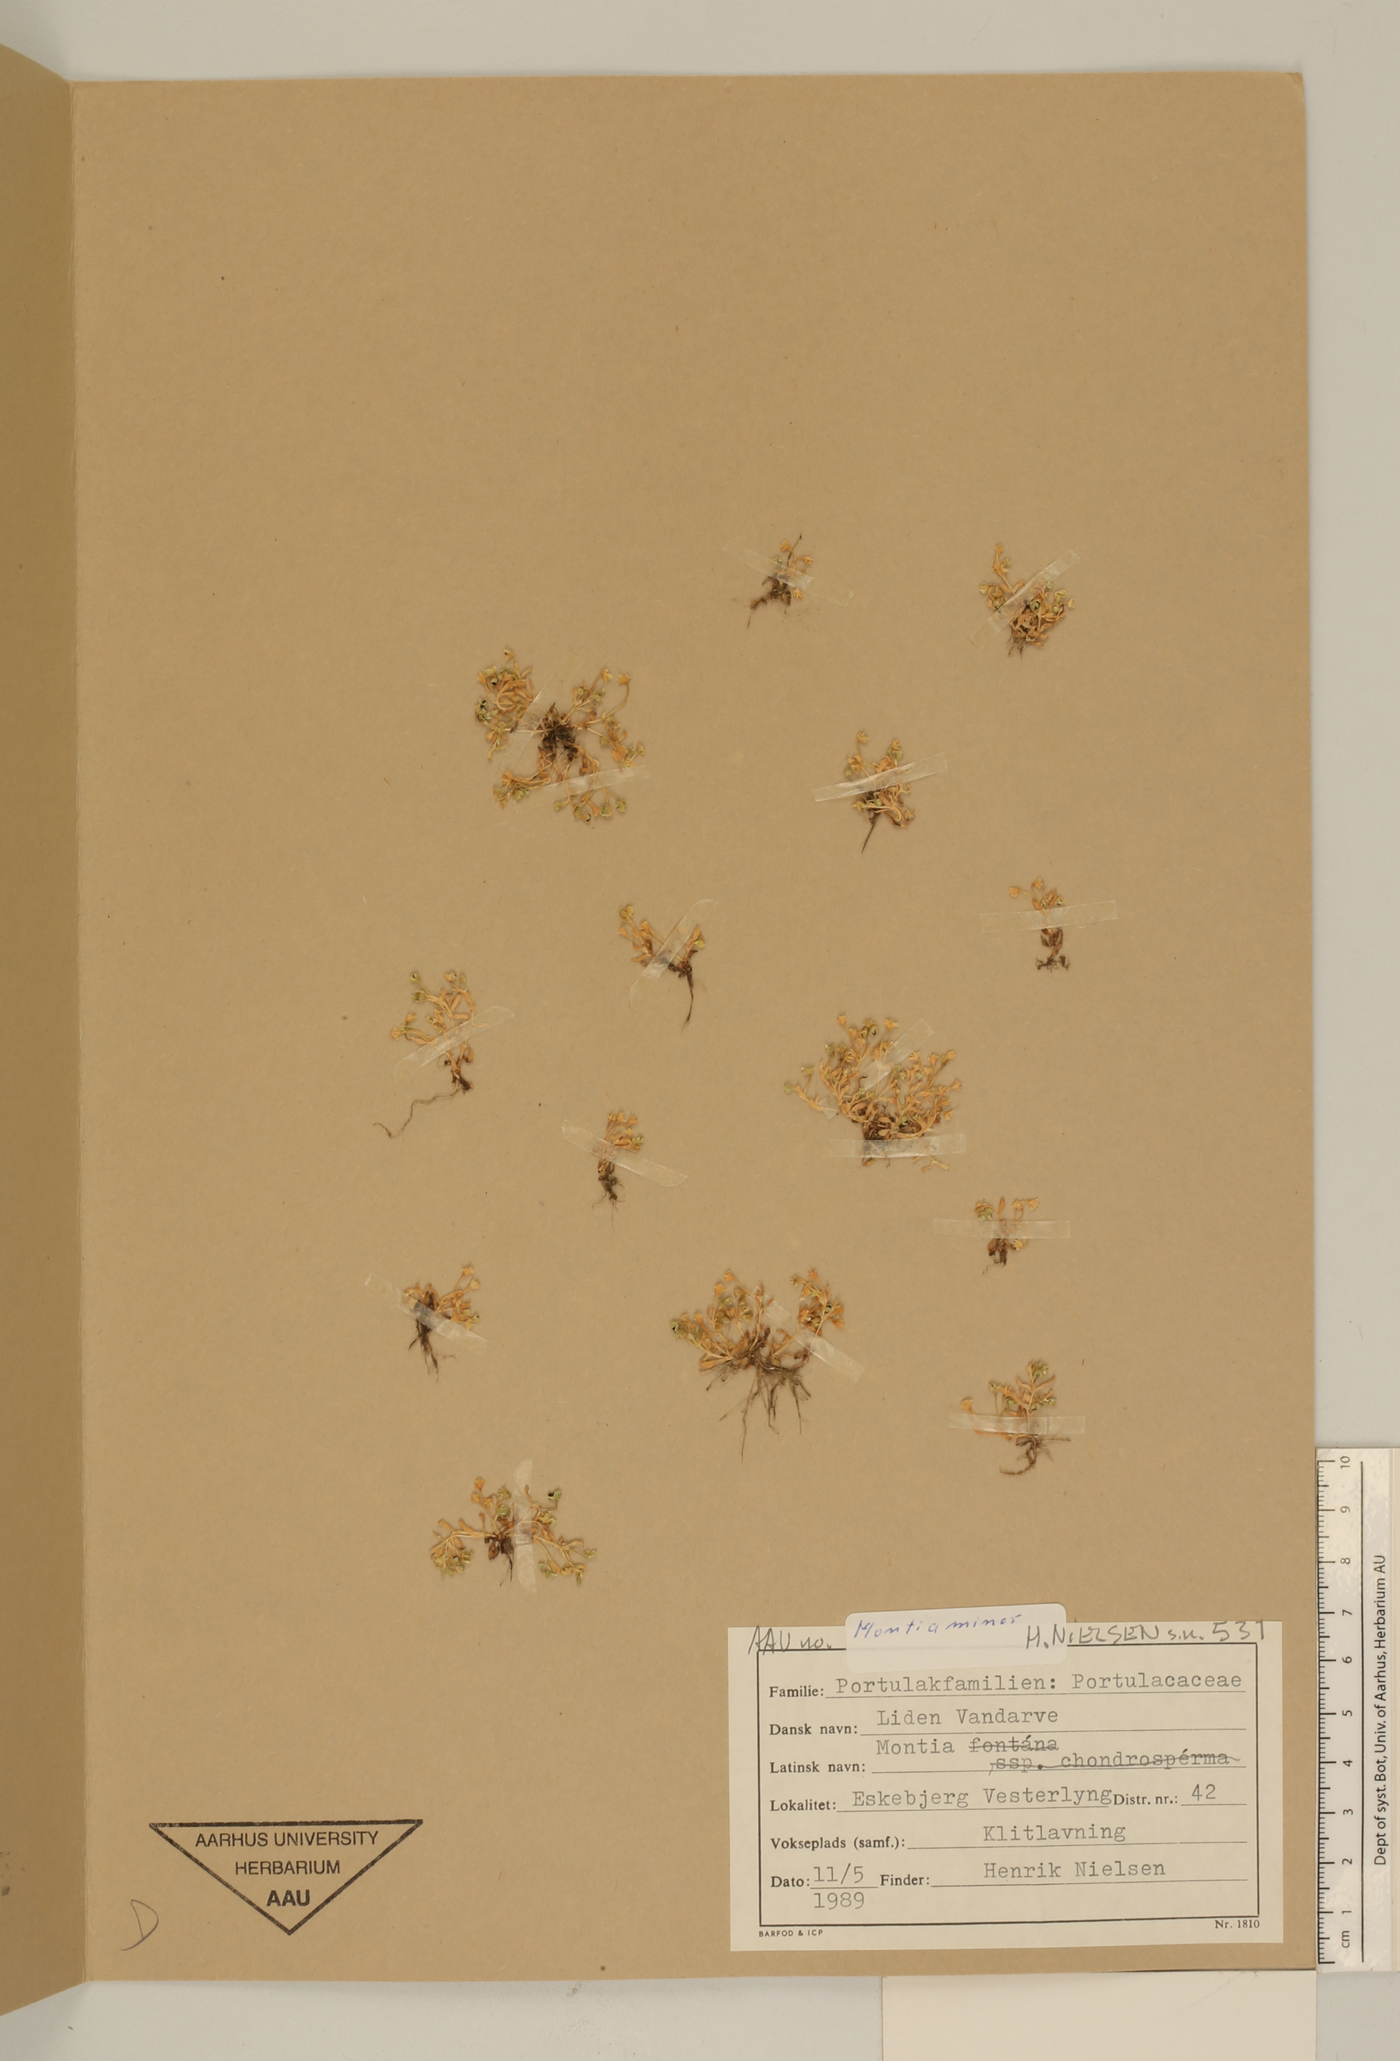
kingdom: Plantae
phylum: Tracheophyta
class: Magnoliopsida
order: Caryophyllales
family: Montiaceae
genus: Montia
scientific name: Montia fontana
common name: Blinks
